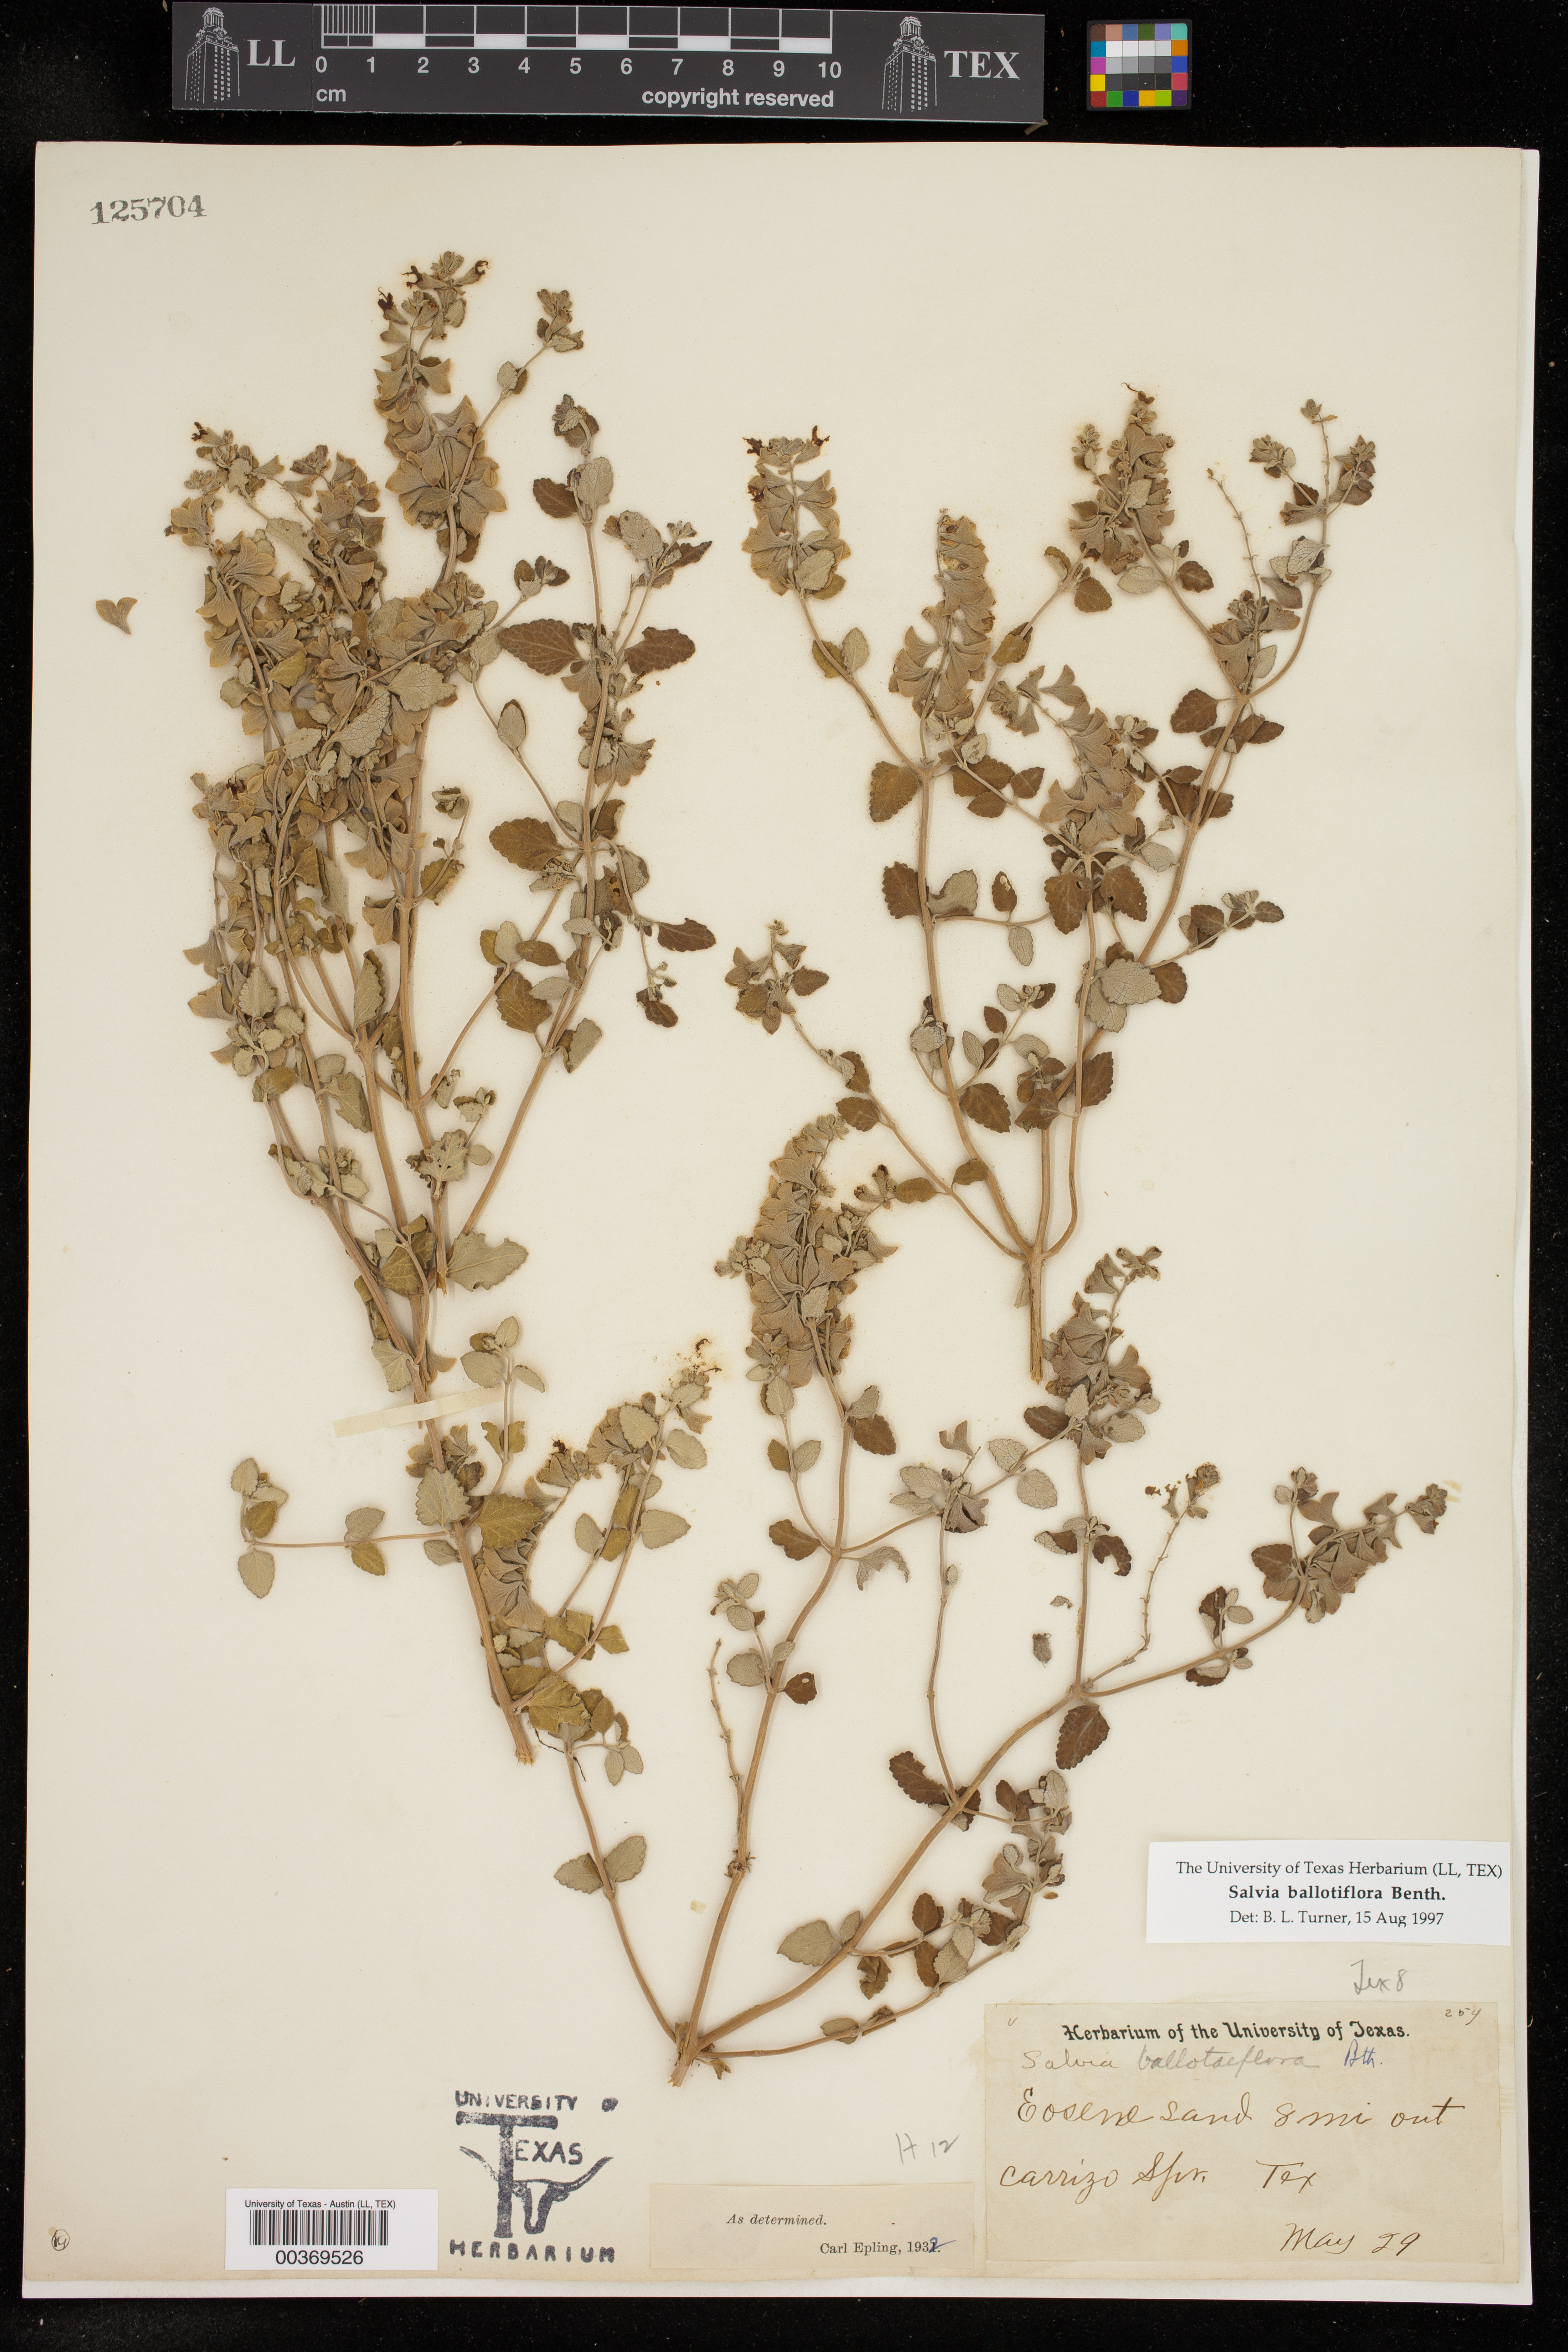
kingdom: Plantae
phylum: Tracheophyta
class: Magnoliopsida
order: Lamiales
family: Lamiaceae
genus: Salvia
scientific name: Salvia ballotiflora
